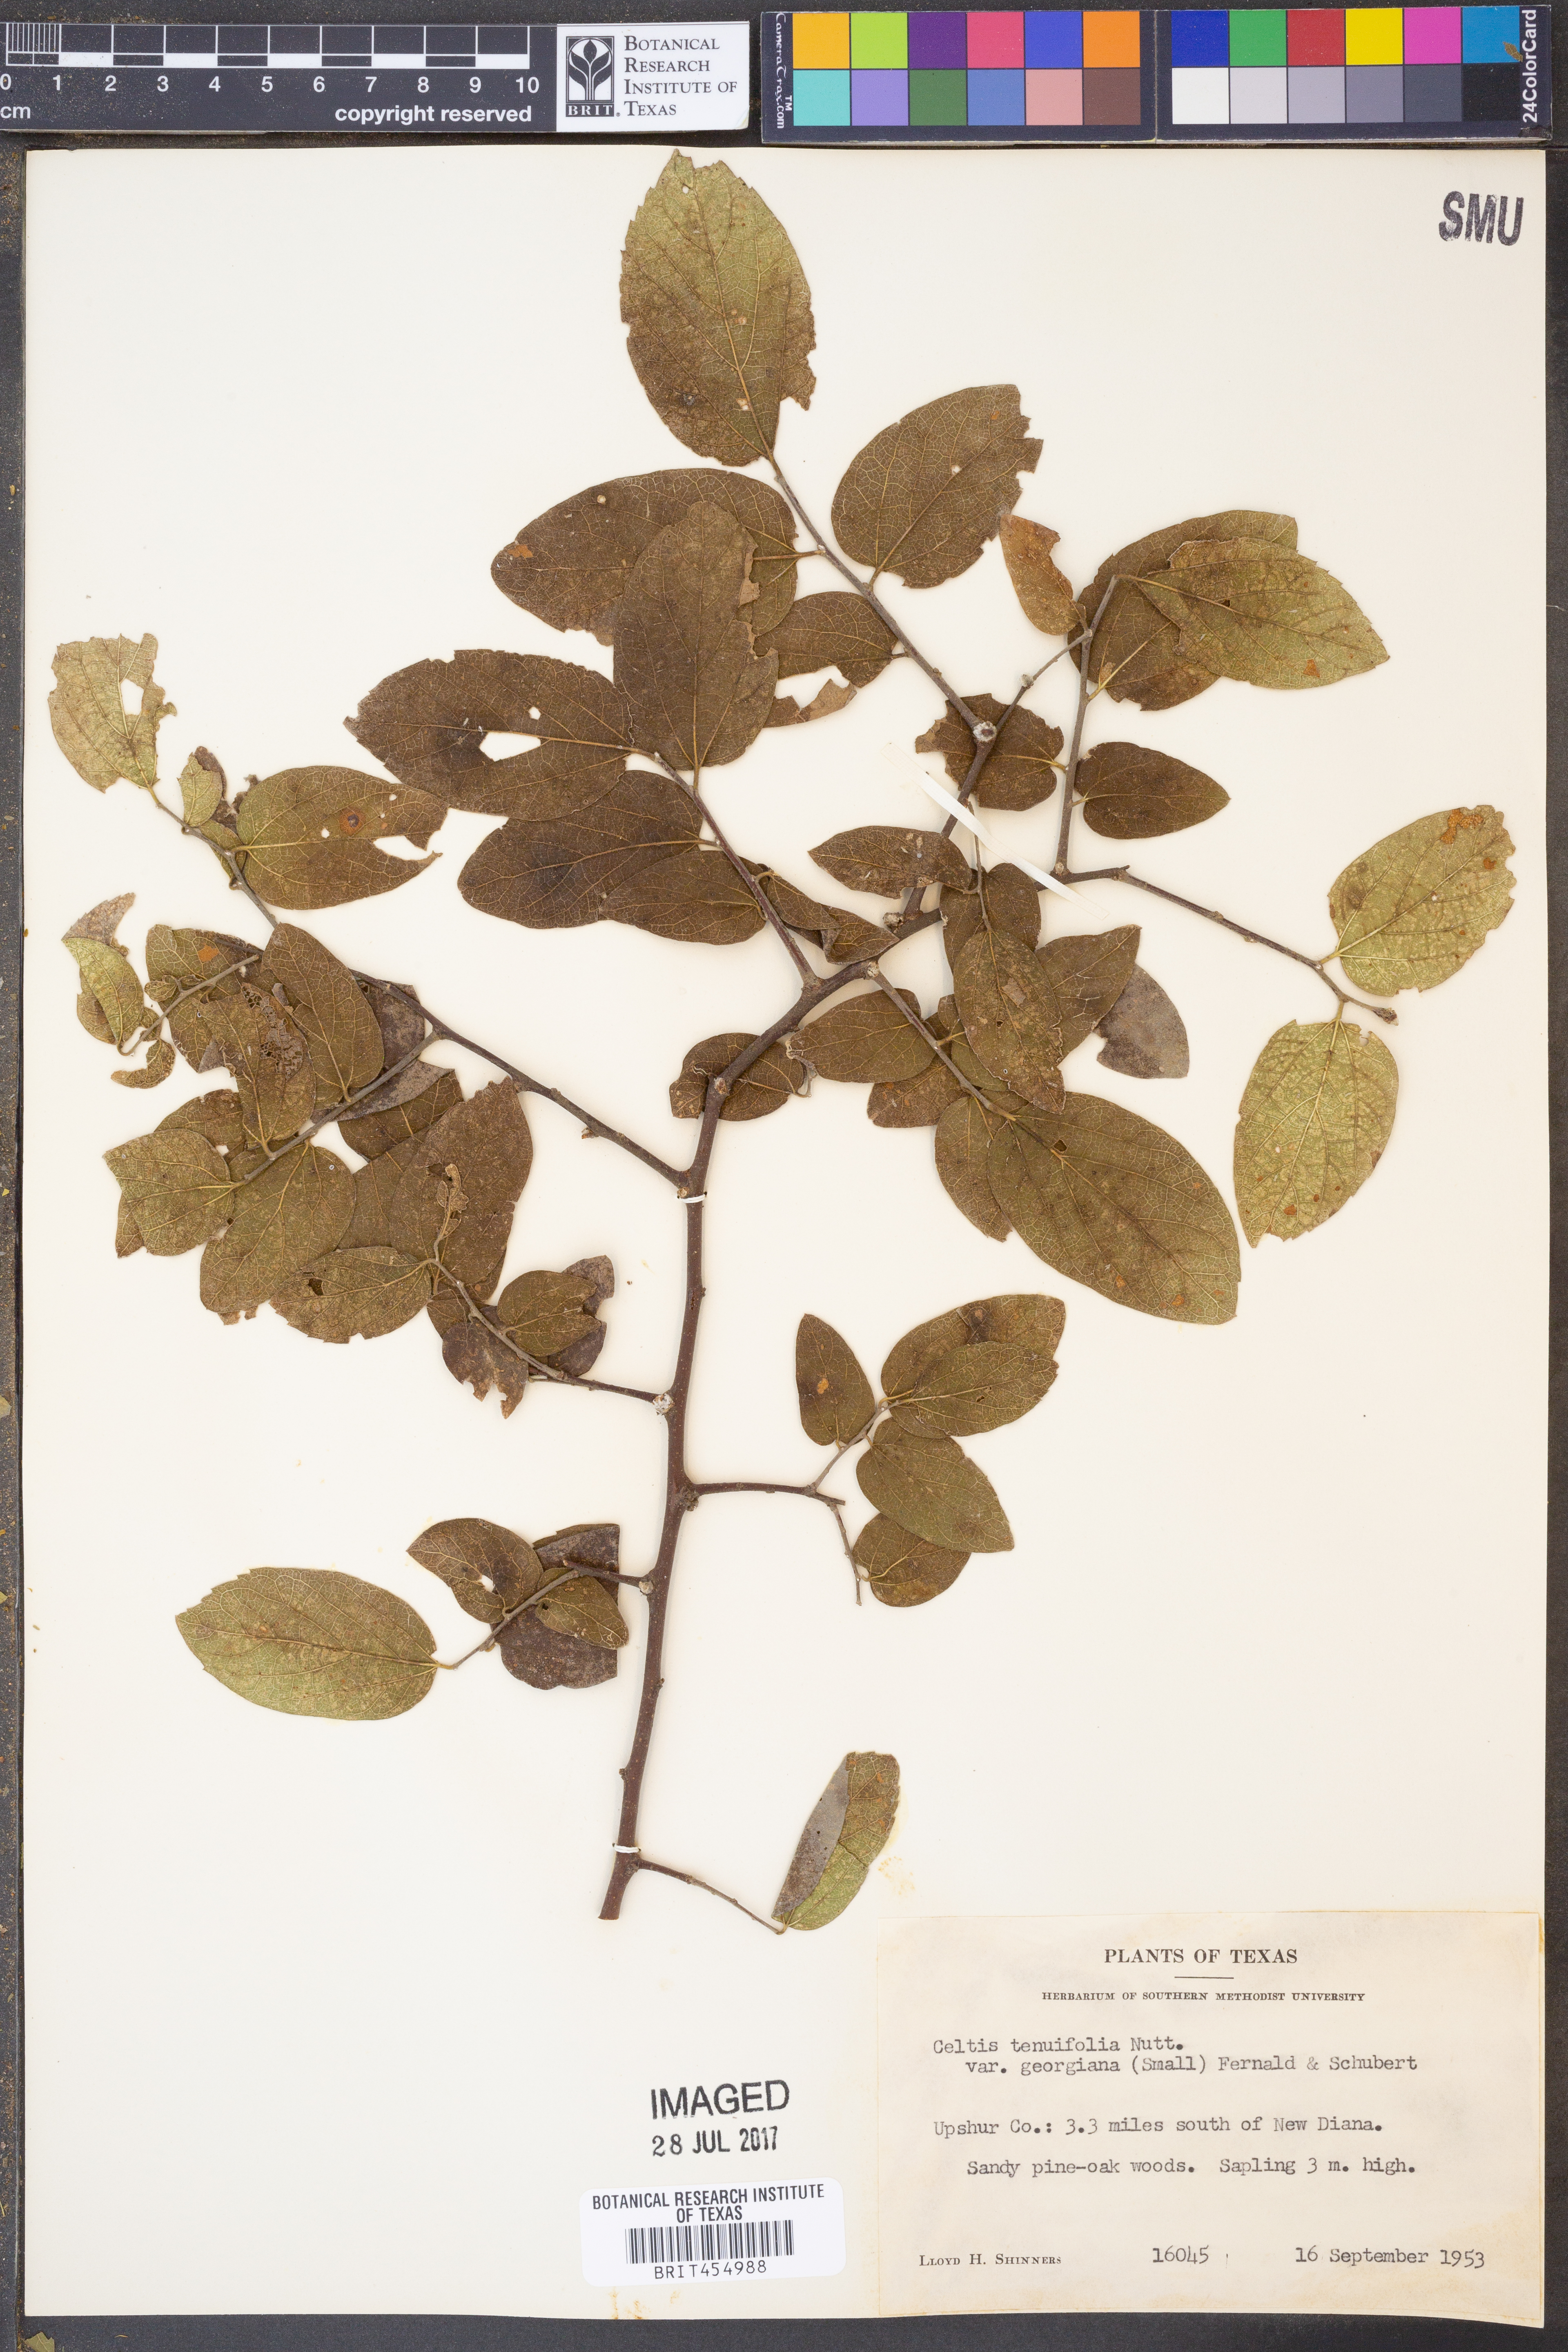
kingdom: Plantae
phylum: Tracheophyta
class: Magnoliopsida
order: Rosales
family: Cannabaceae
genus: Celtis
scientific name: Celtis tenuifolia
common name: Georgia hackberry
